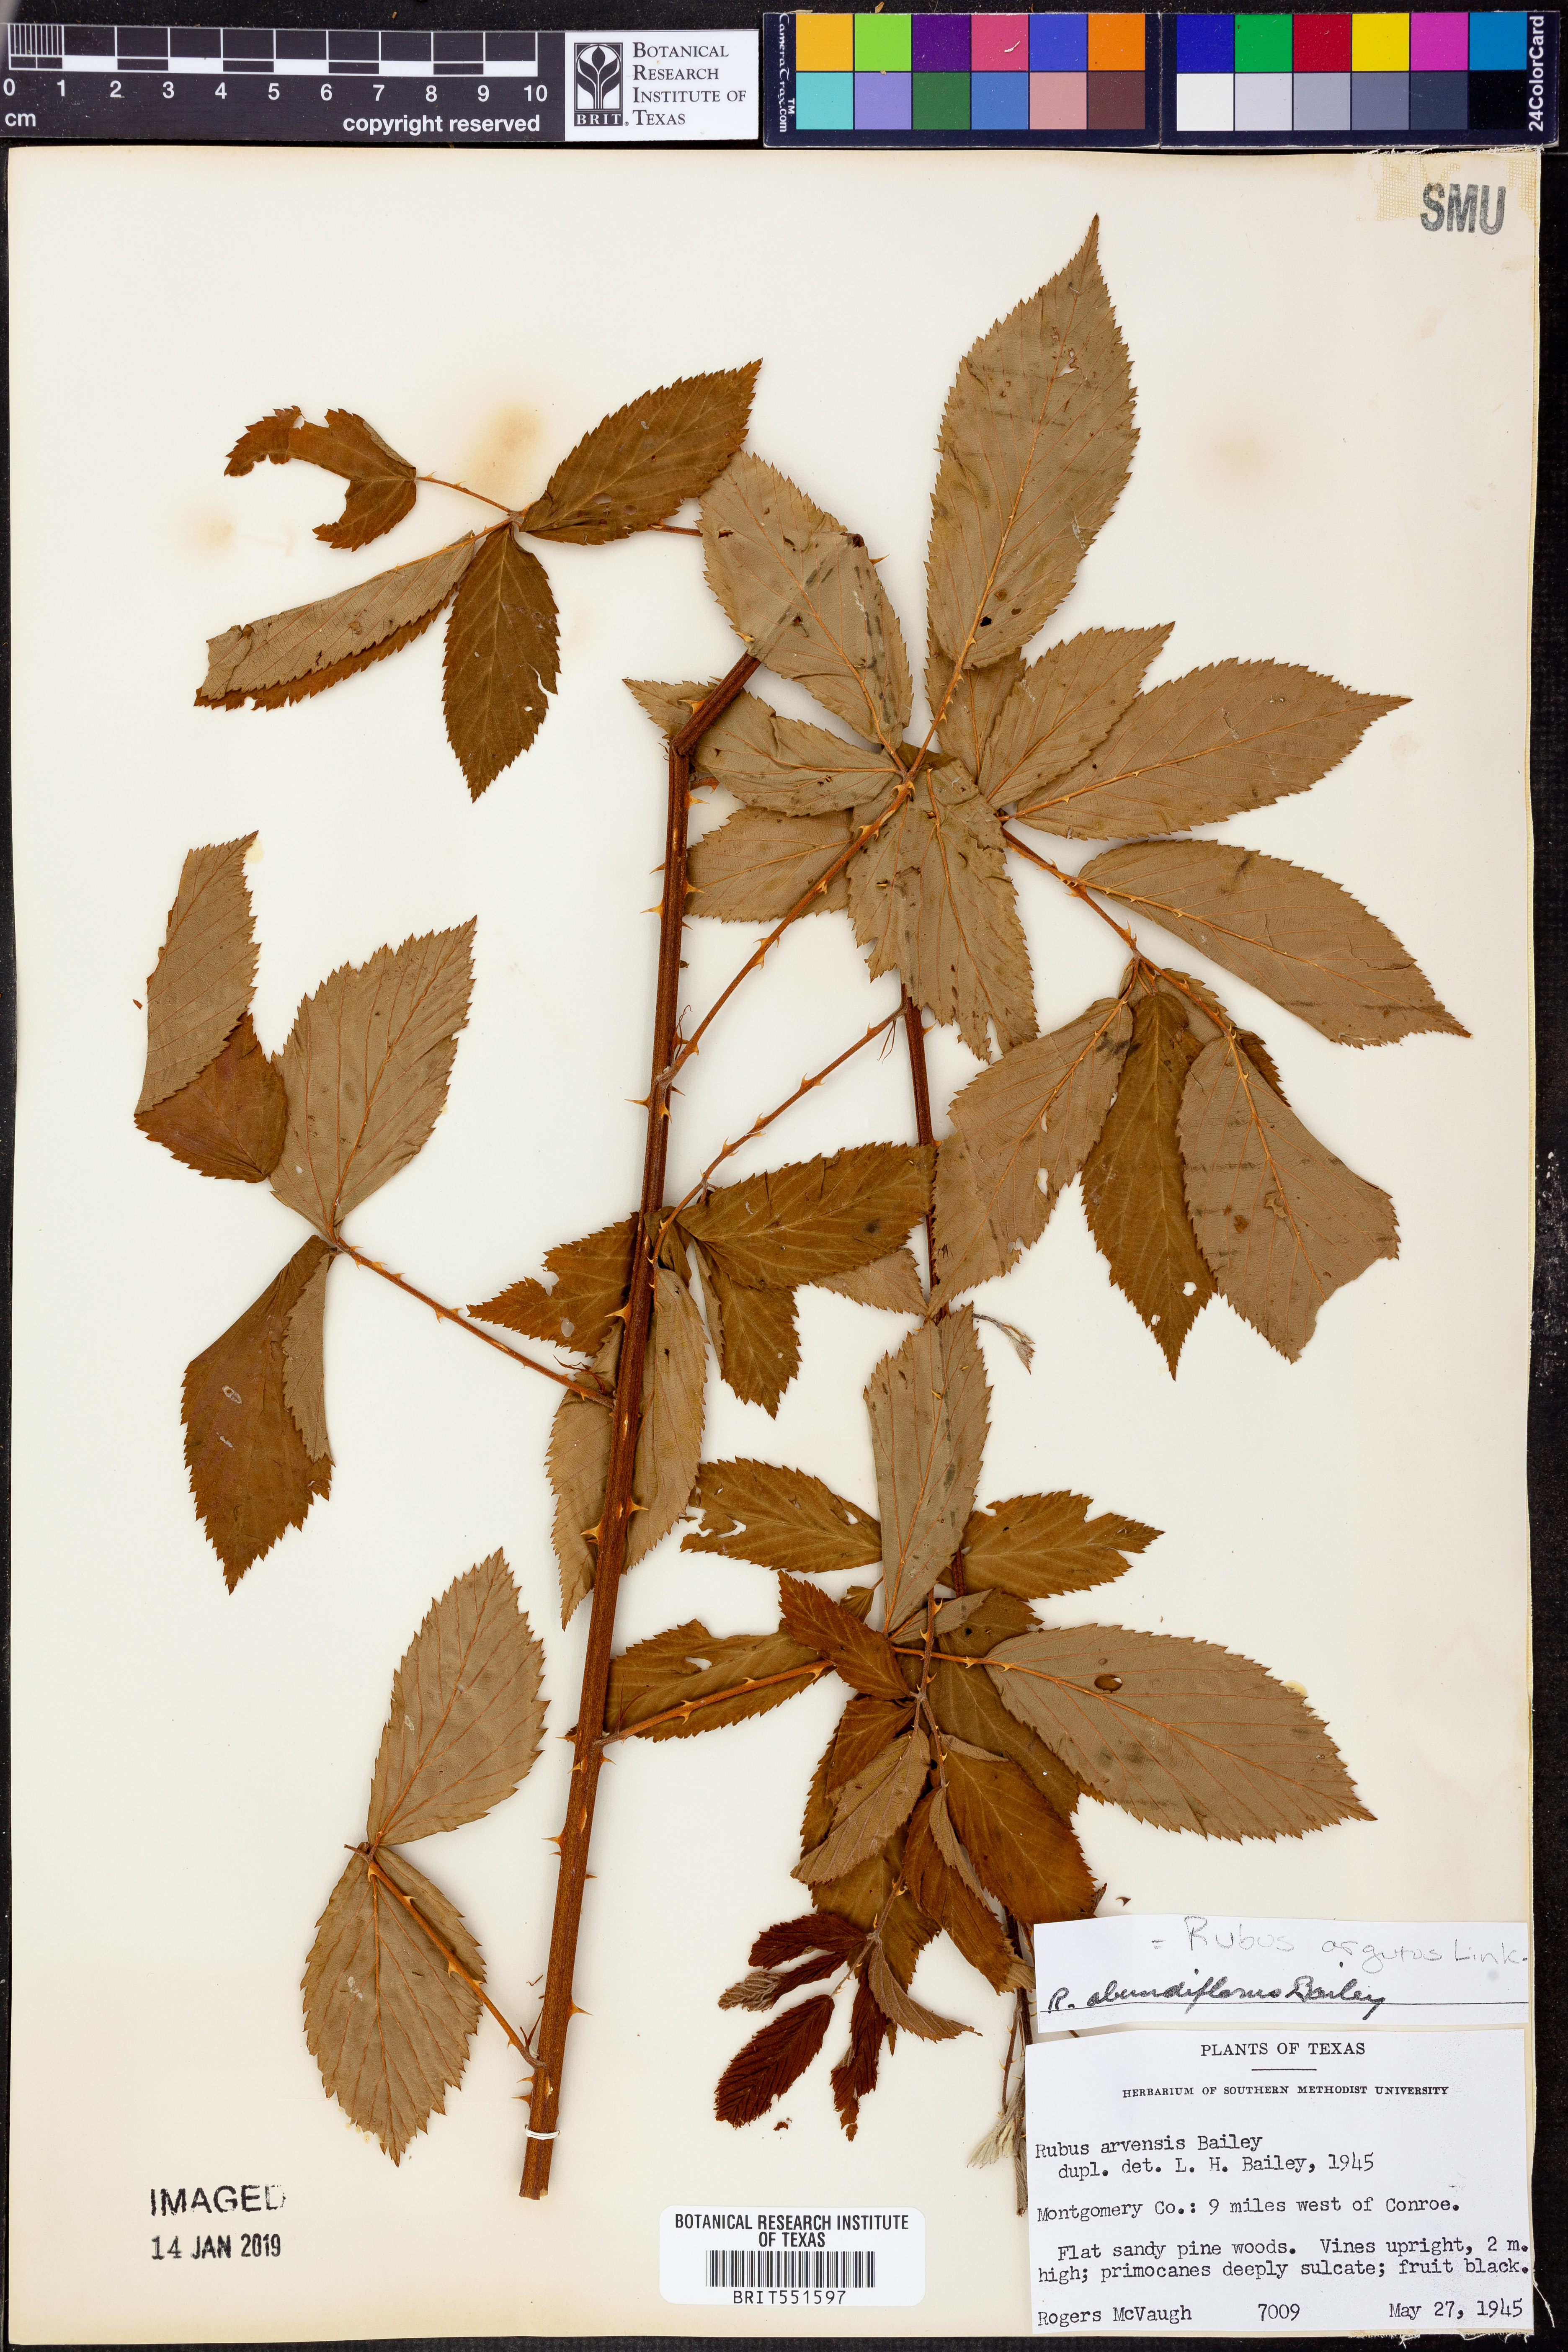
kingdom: Plantae
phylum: Tracheophyta
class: Magnoliopsida
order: Rosales
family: Rosaceae
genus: Rubus
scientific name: Rubus argutus
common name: Sawtooth blackberry
